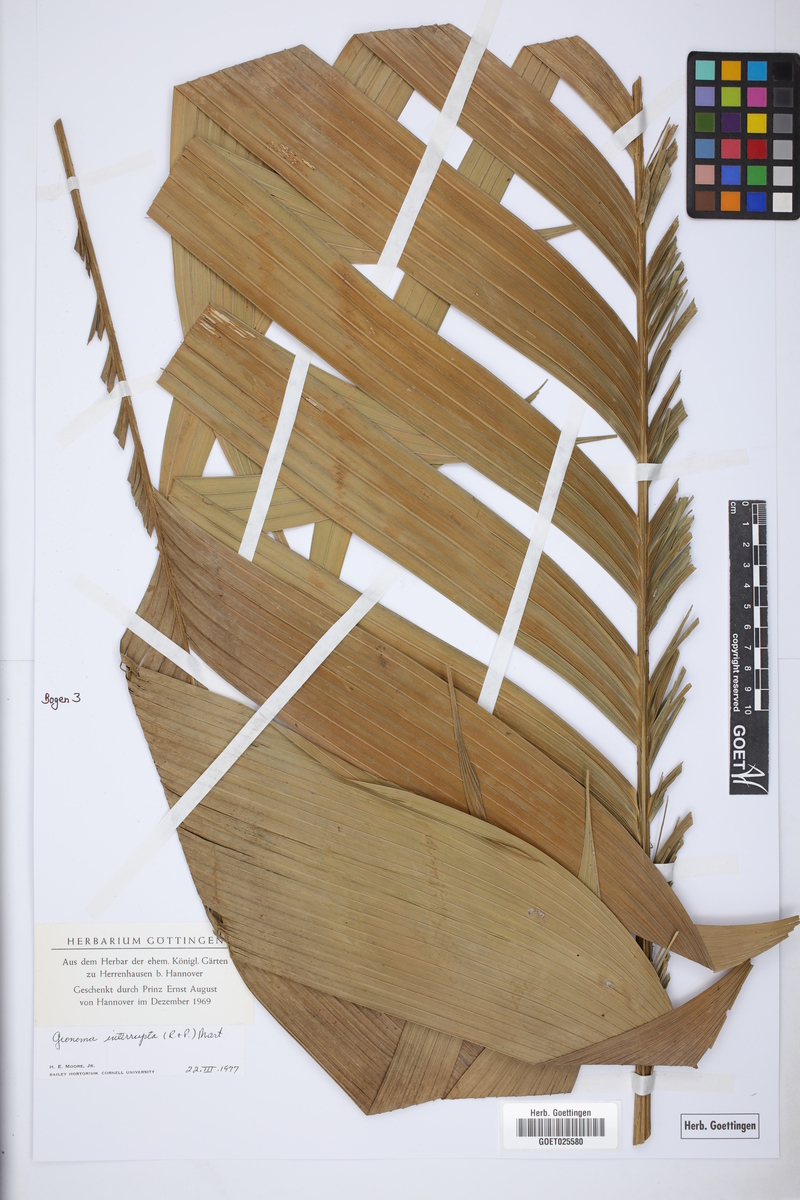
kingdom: Plantae
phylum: Tracheophyta
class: Liliopsida
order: Arecales
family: Arecaceae
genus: Geonoma
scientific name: Geonoma interrupta
